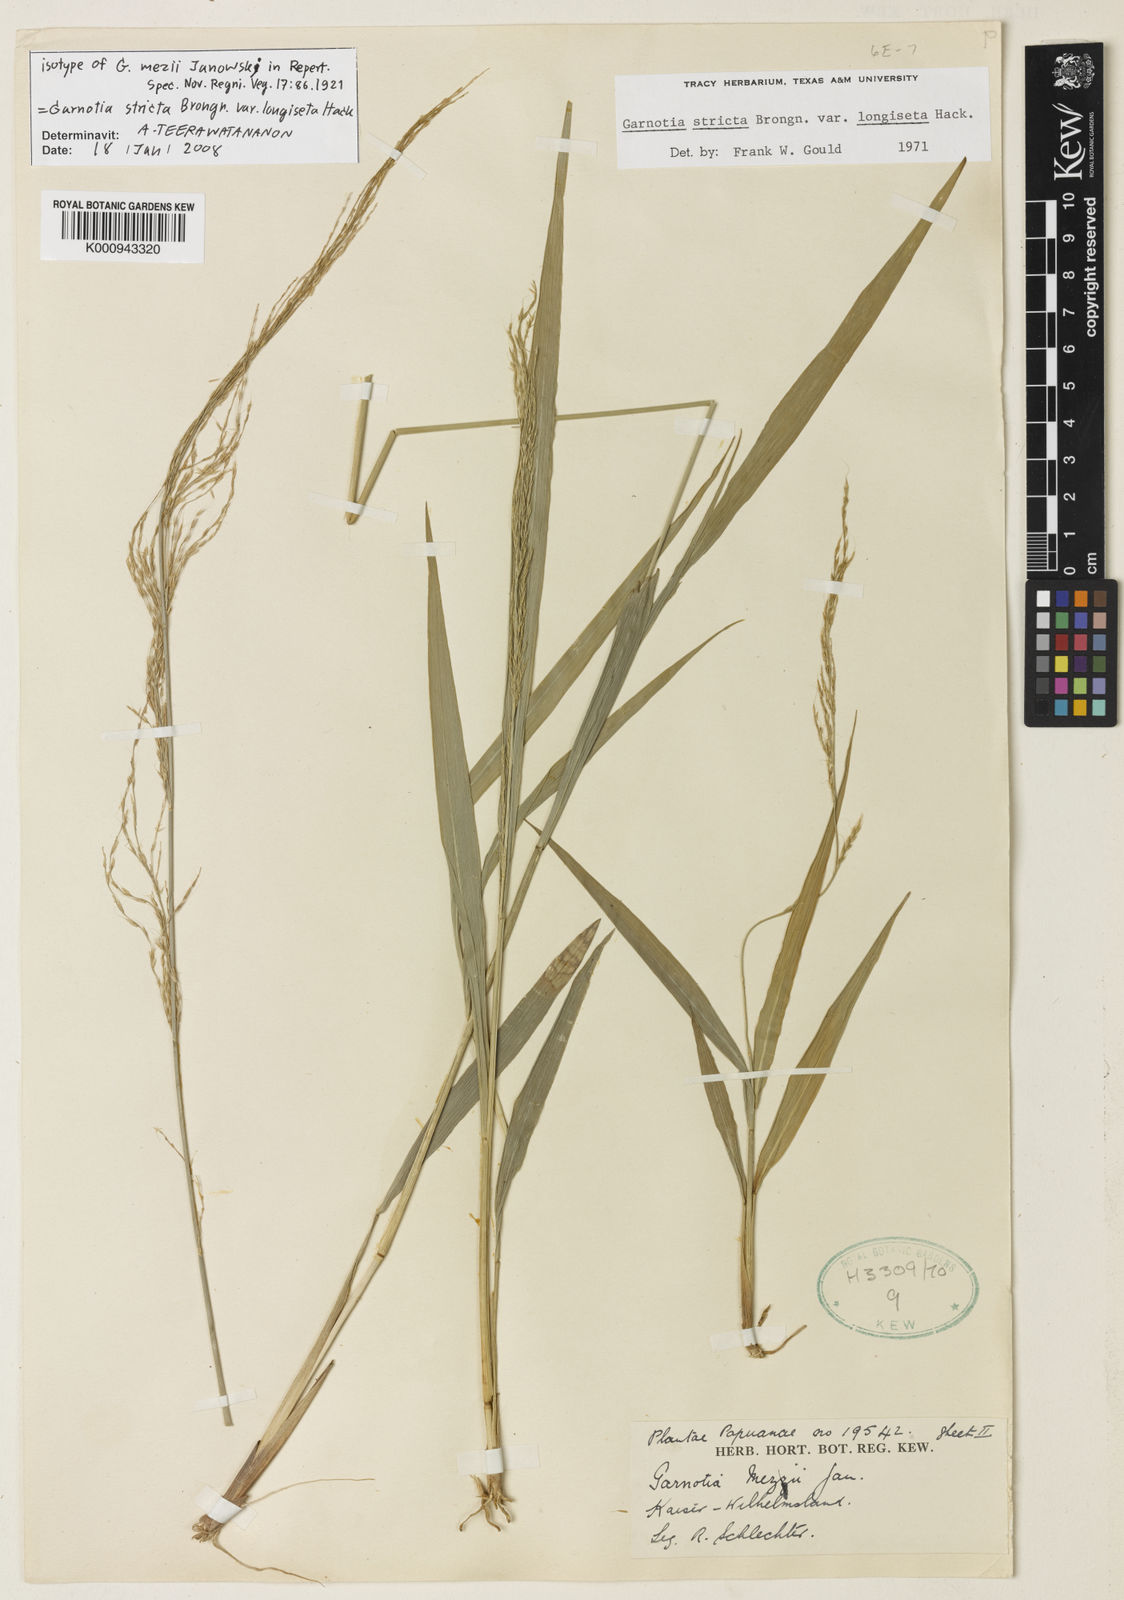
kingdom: Plantae
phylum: Tracheophyta
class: Liliopsida
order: Poales
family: Poaceae
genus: Garnotia
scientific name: Garnotia stricta
